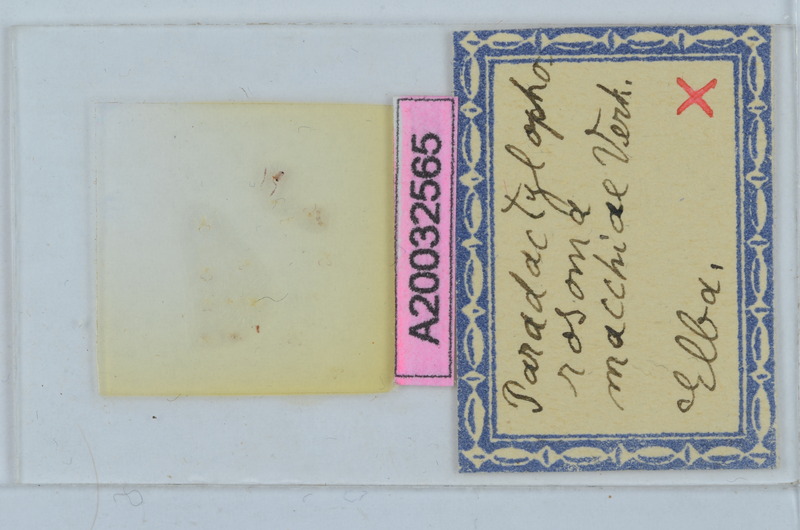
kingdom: Animalia
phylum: Arthropoda
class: Diplopoda
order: Chordeumatida
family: Craspedosomatidae
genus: Paradactylophorosoma
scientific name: Paradactylophorosoma insulanum
